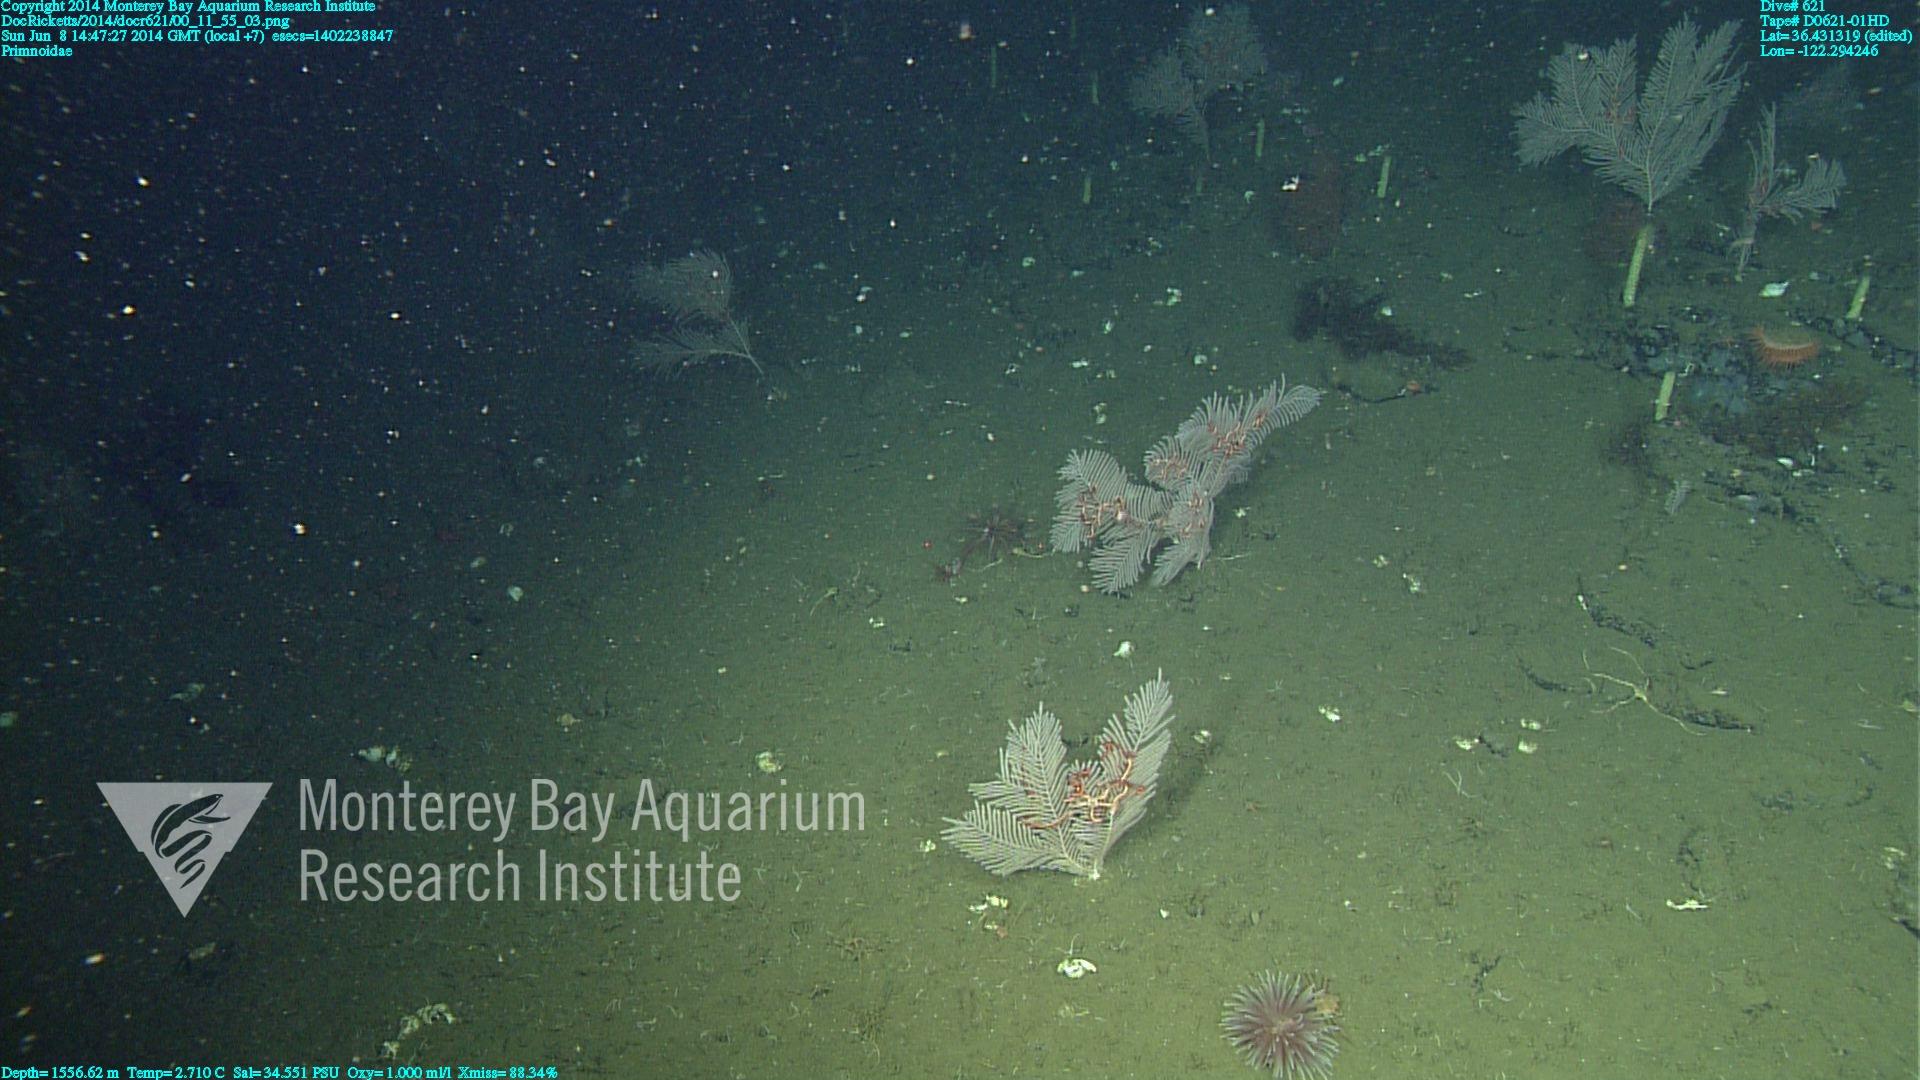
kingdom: Animalia
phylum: Cnidaria
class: Anthozoa
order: Scleralcyonacea
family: Primnoidae
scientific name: Primnoidae
